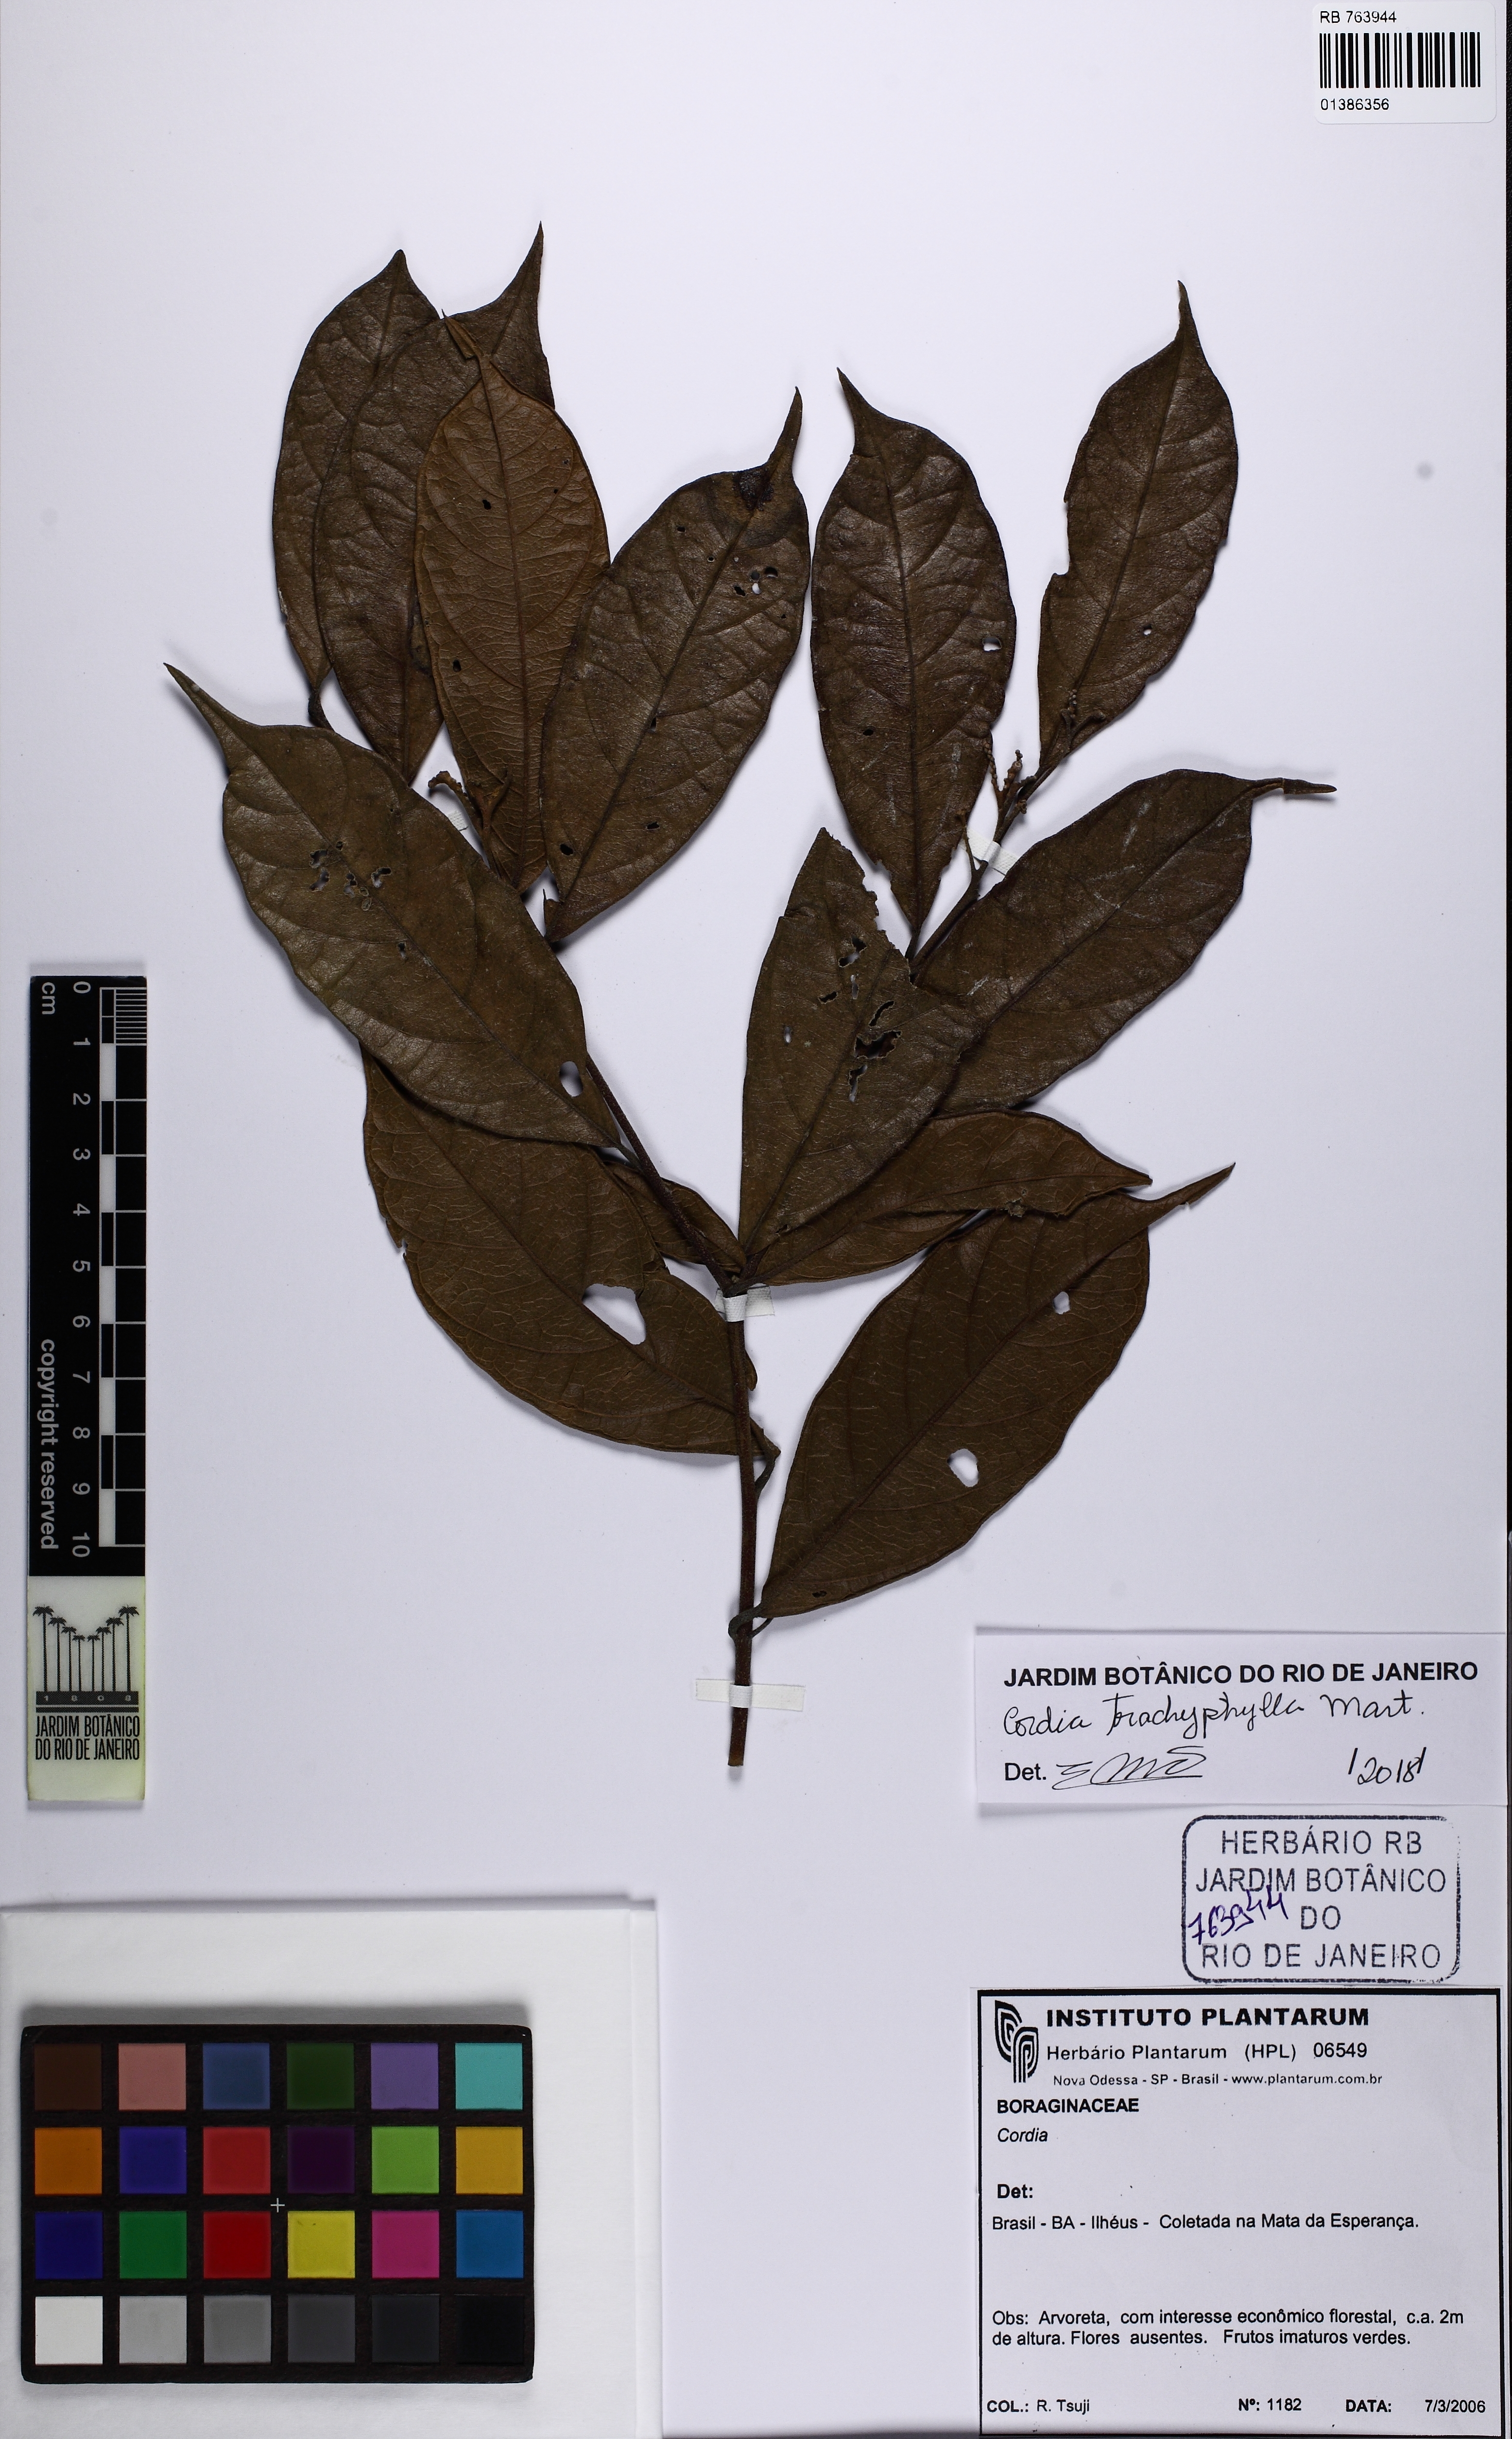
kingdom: Plantae
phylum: Tracheophyta
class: Magnoliopsida
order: Boraginales
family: Cordiaceae
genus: Cordia
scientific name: Cordia trachyphylla
